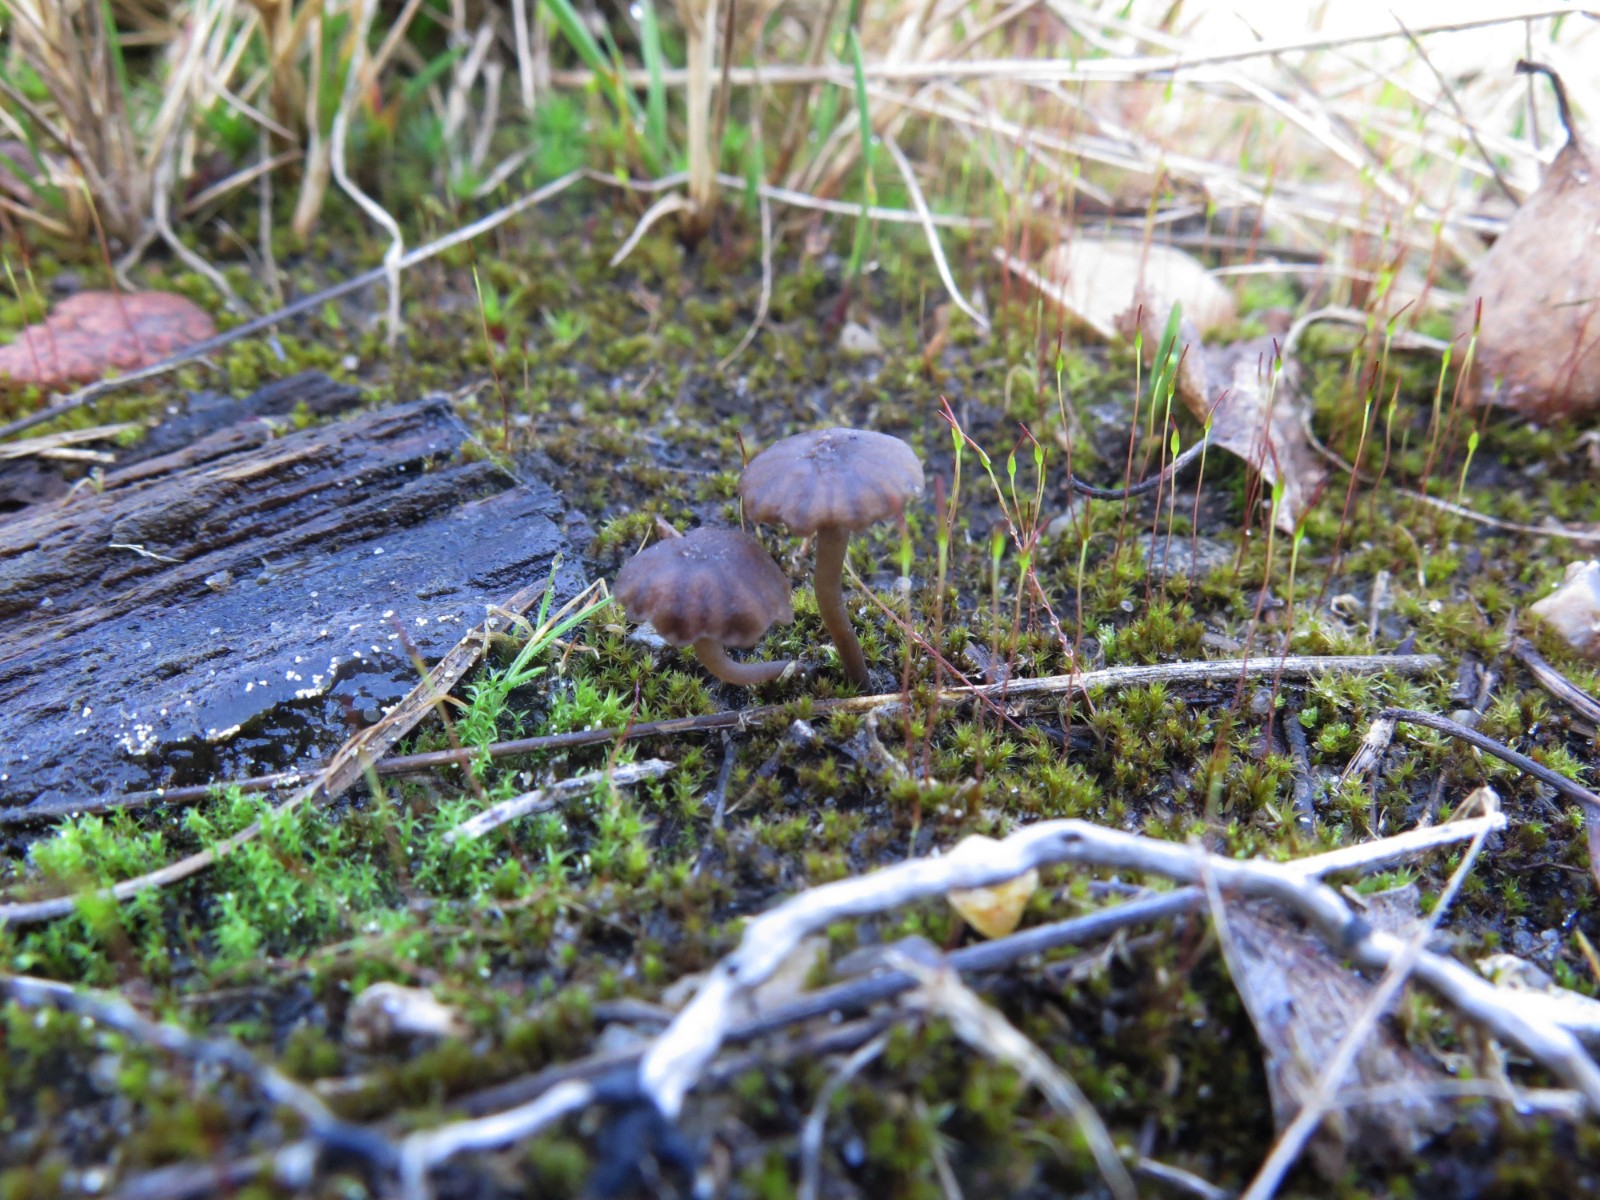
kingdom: Fungi
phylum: Basidiomycota
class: Agaricomycetes
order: Agaricales
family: Hygrophoraceae
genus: Arrhenia
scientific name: Arrhenia obscurata
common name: hede-fontænehat
